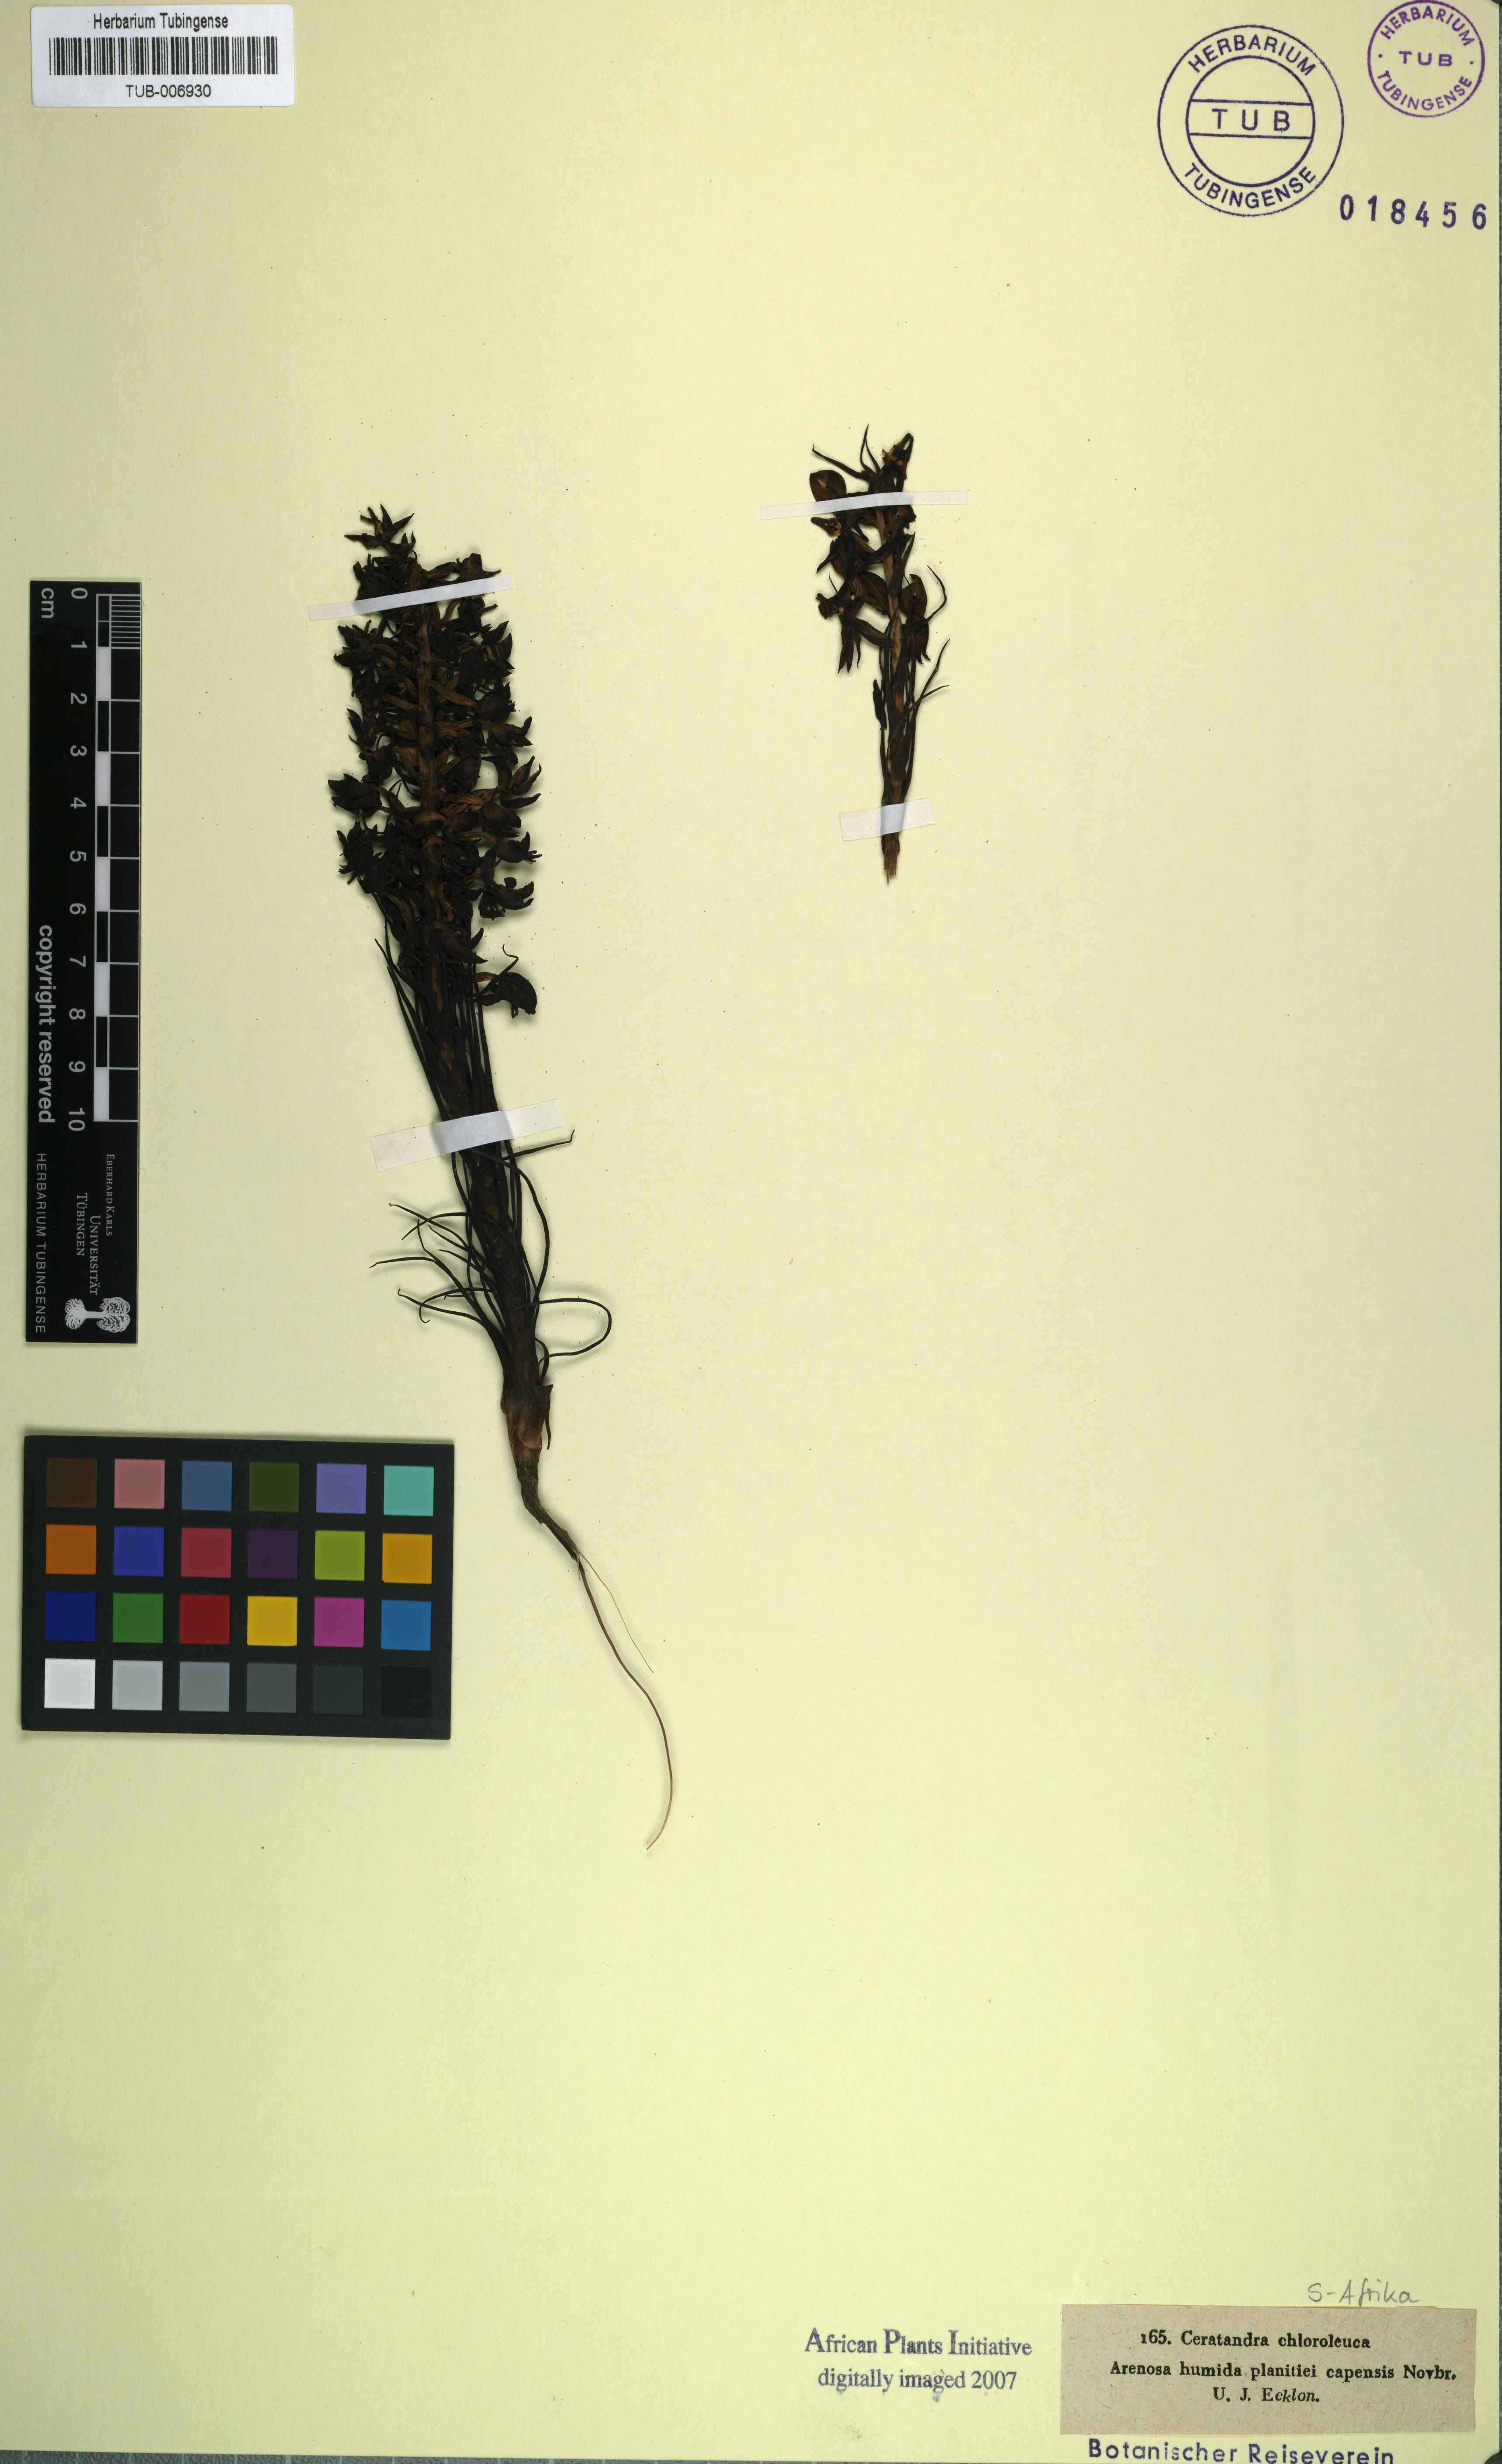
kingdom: Plantae
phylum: Tracheophyta
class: Liliopsida
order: Asparagales
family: Orchidaceae
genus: Ceratandra
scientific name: Ceratandra atrata
